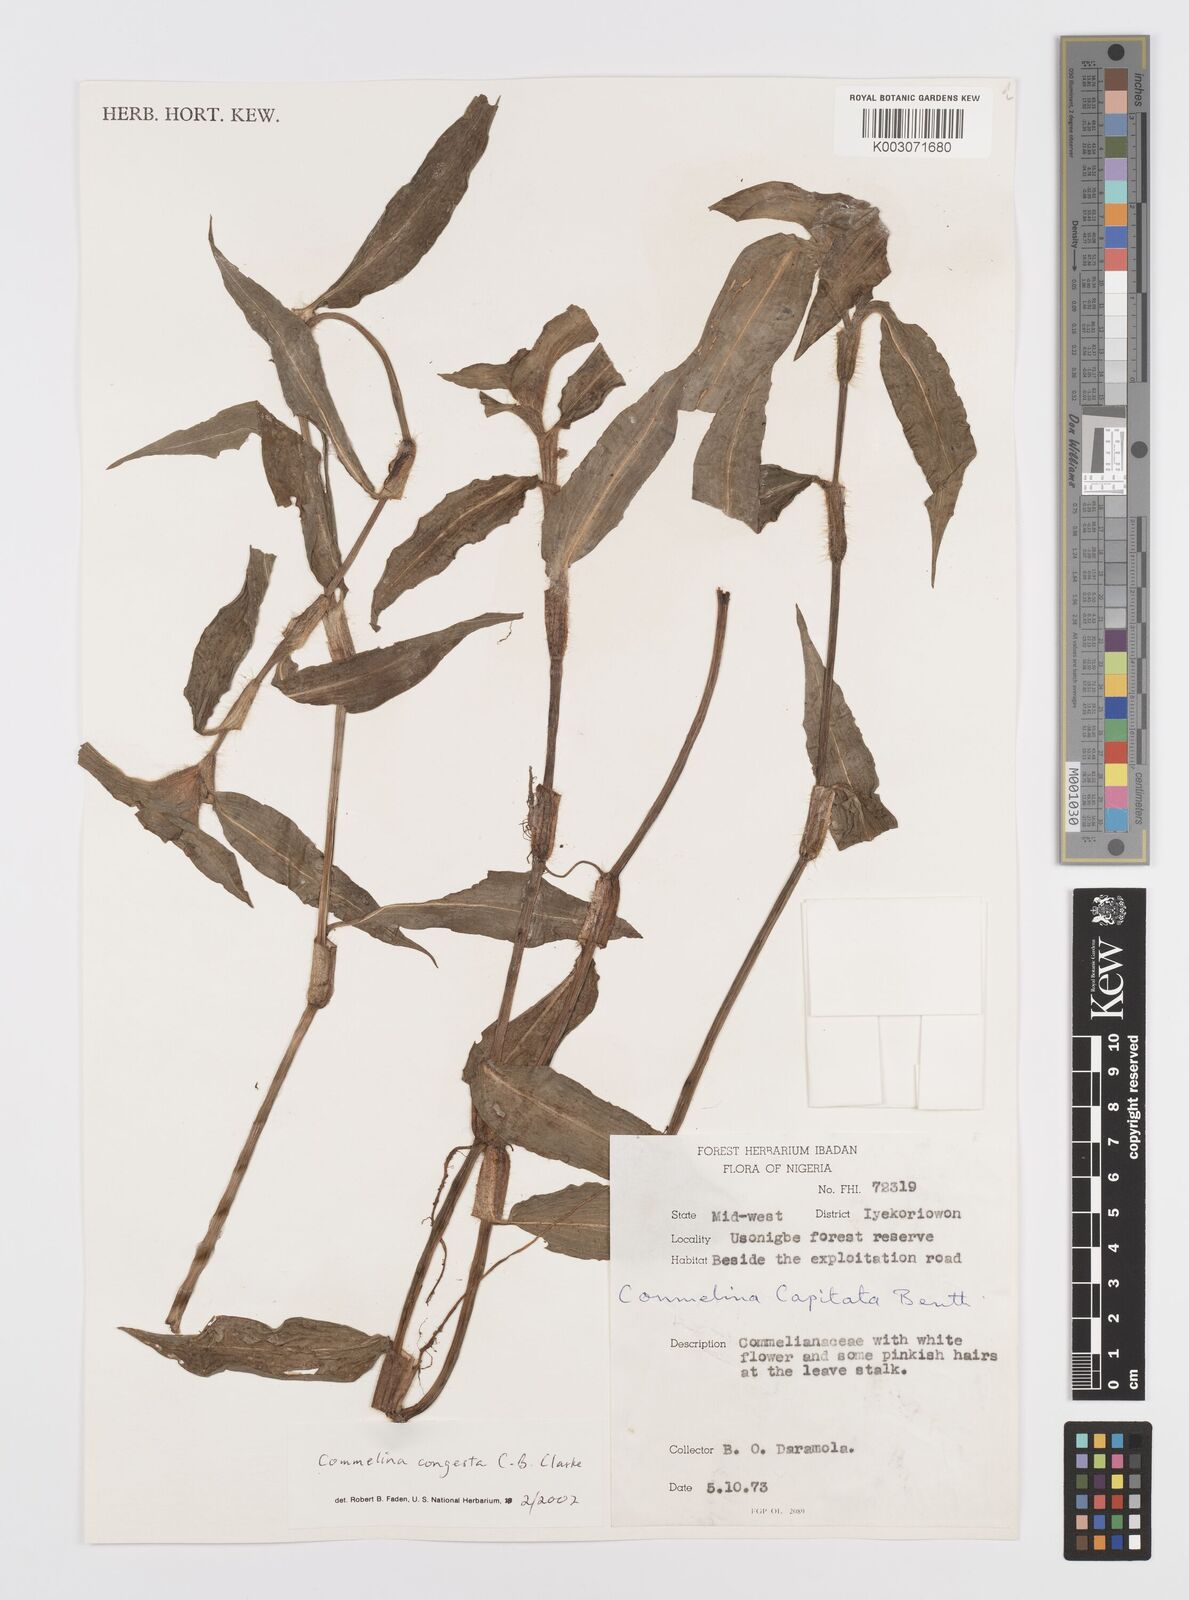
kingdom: Plantae
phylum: Tracheophyta
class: Liliopsida
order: Commelinales
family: Commelinaceae
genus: Commelina
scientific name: Commelina congesta
